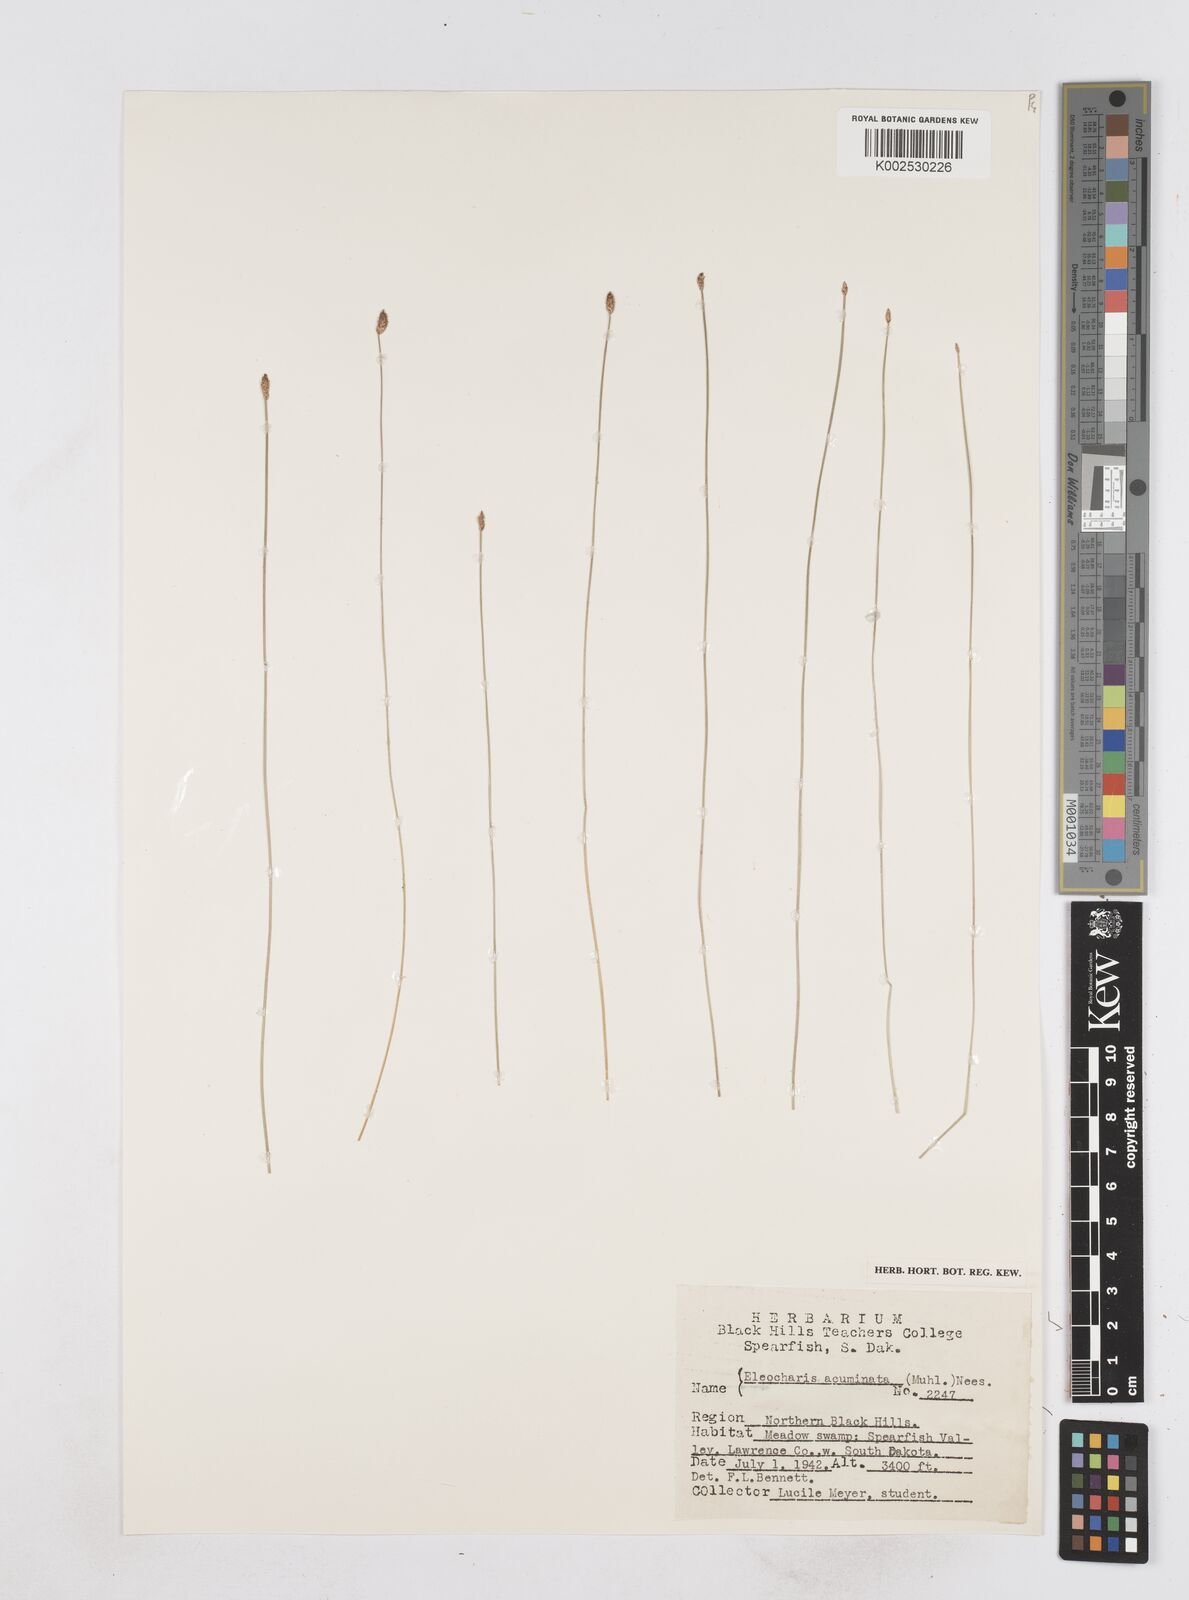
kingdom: Plantae
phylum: Tracheophyta
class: Liliopsida
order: Poales
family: Cyperaceae
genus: Eleocharis
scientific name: Eleocharis compressa
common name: Flat-stem spike-rush
